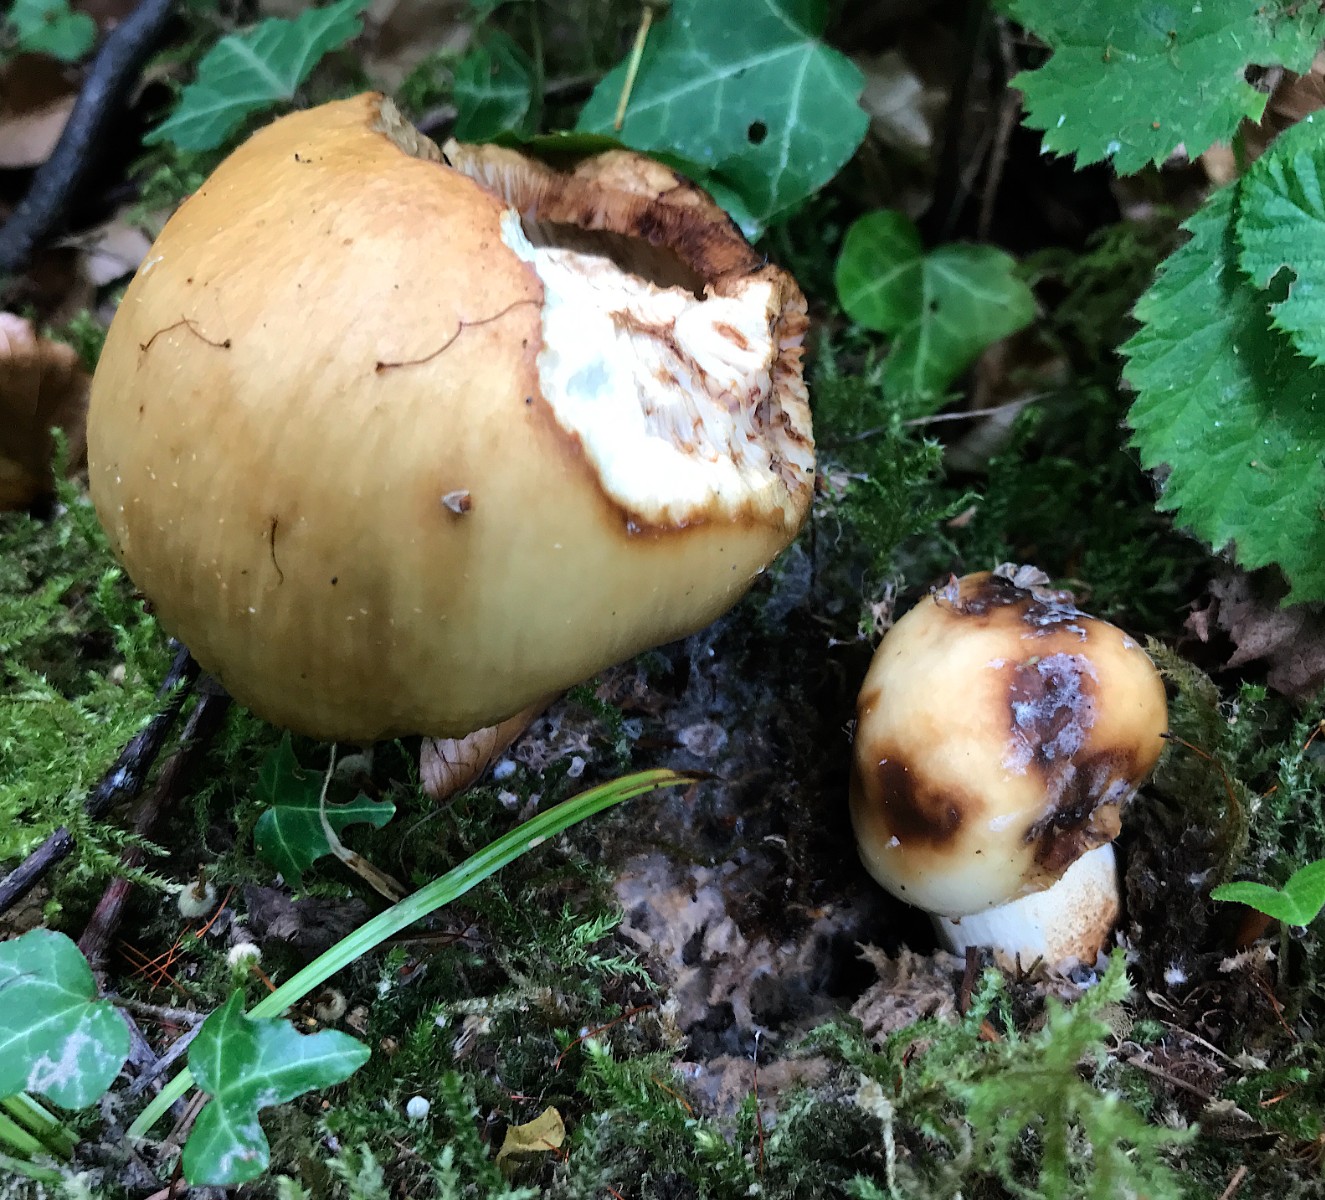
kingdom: Fungi
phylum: Basidiomycota
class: Agaricomycetes
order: Russulales
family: Russulaceae
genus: Russula
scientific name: Russula foetens
